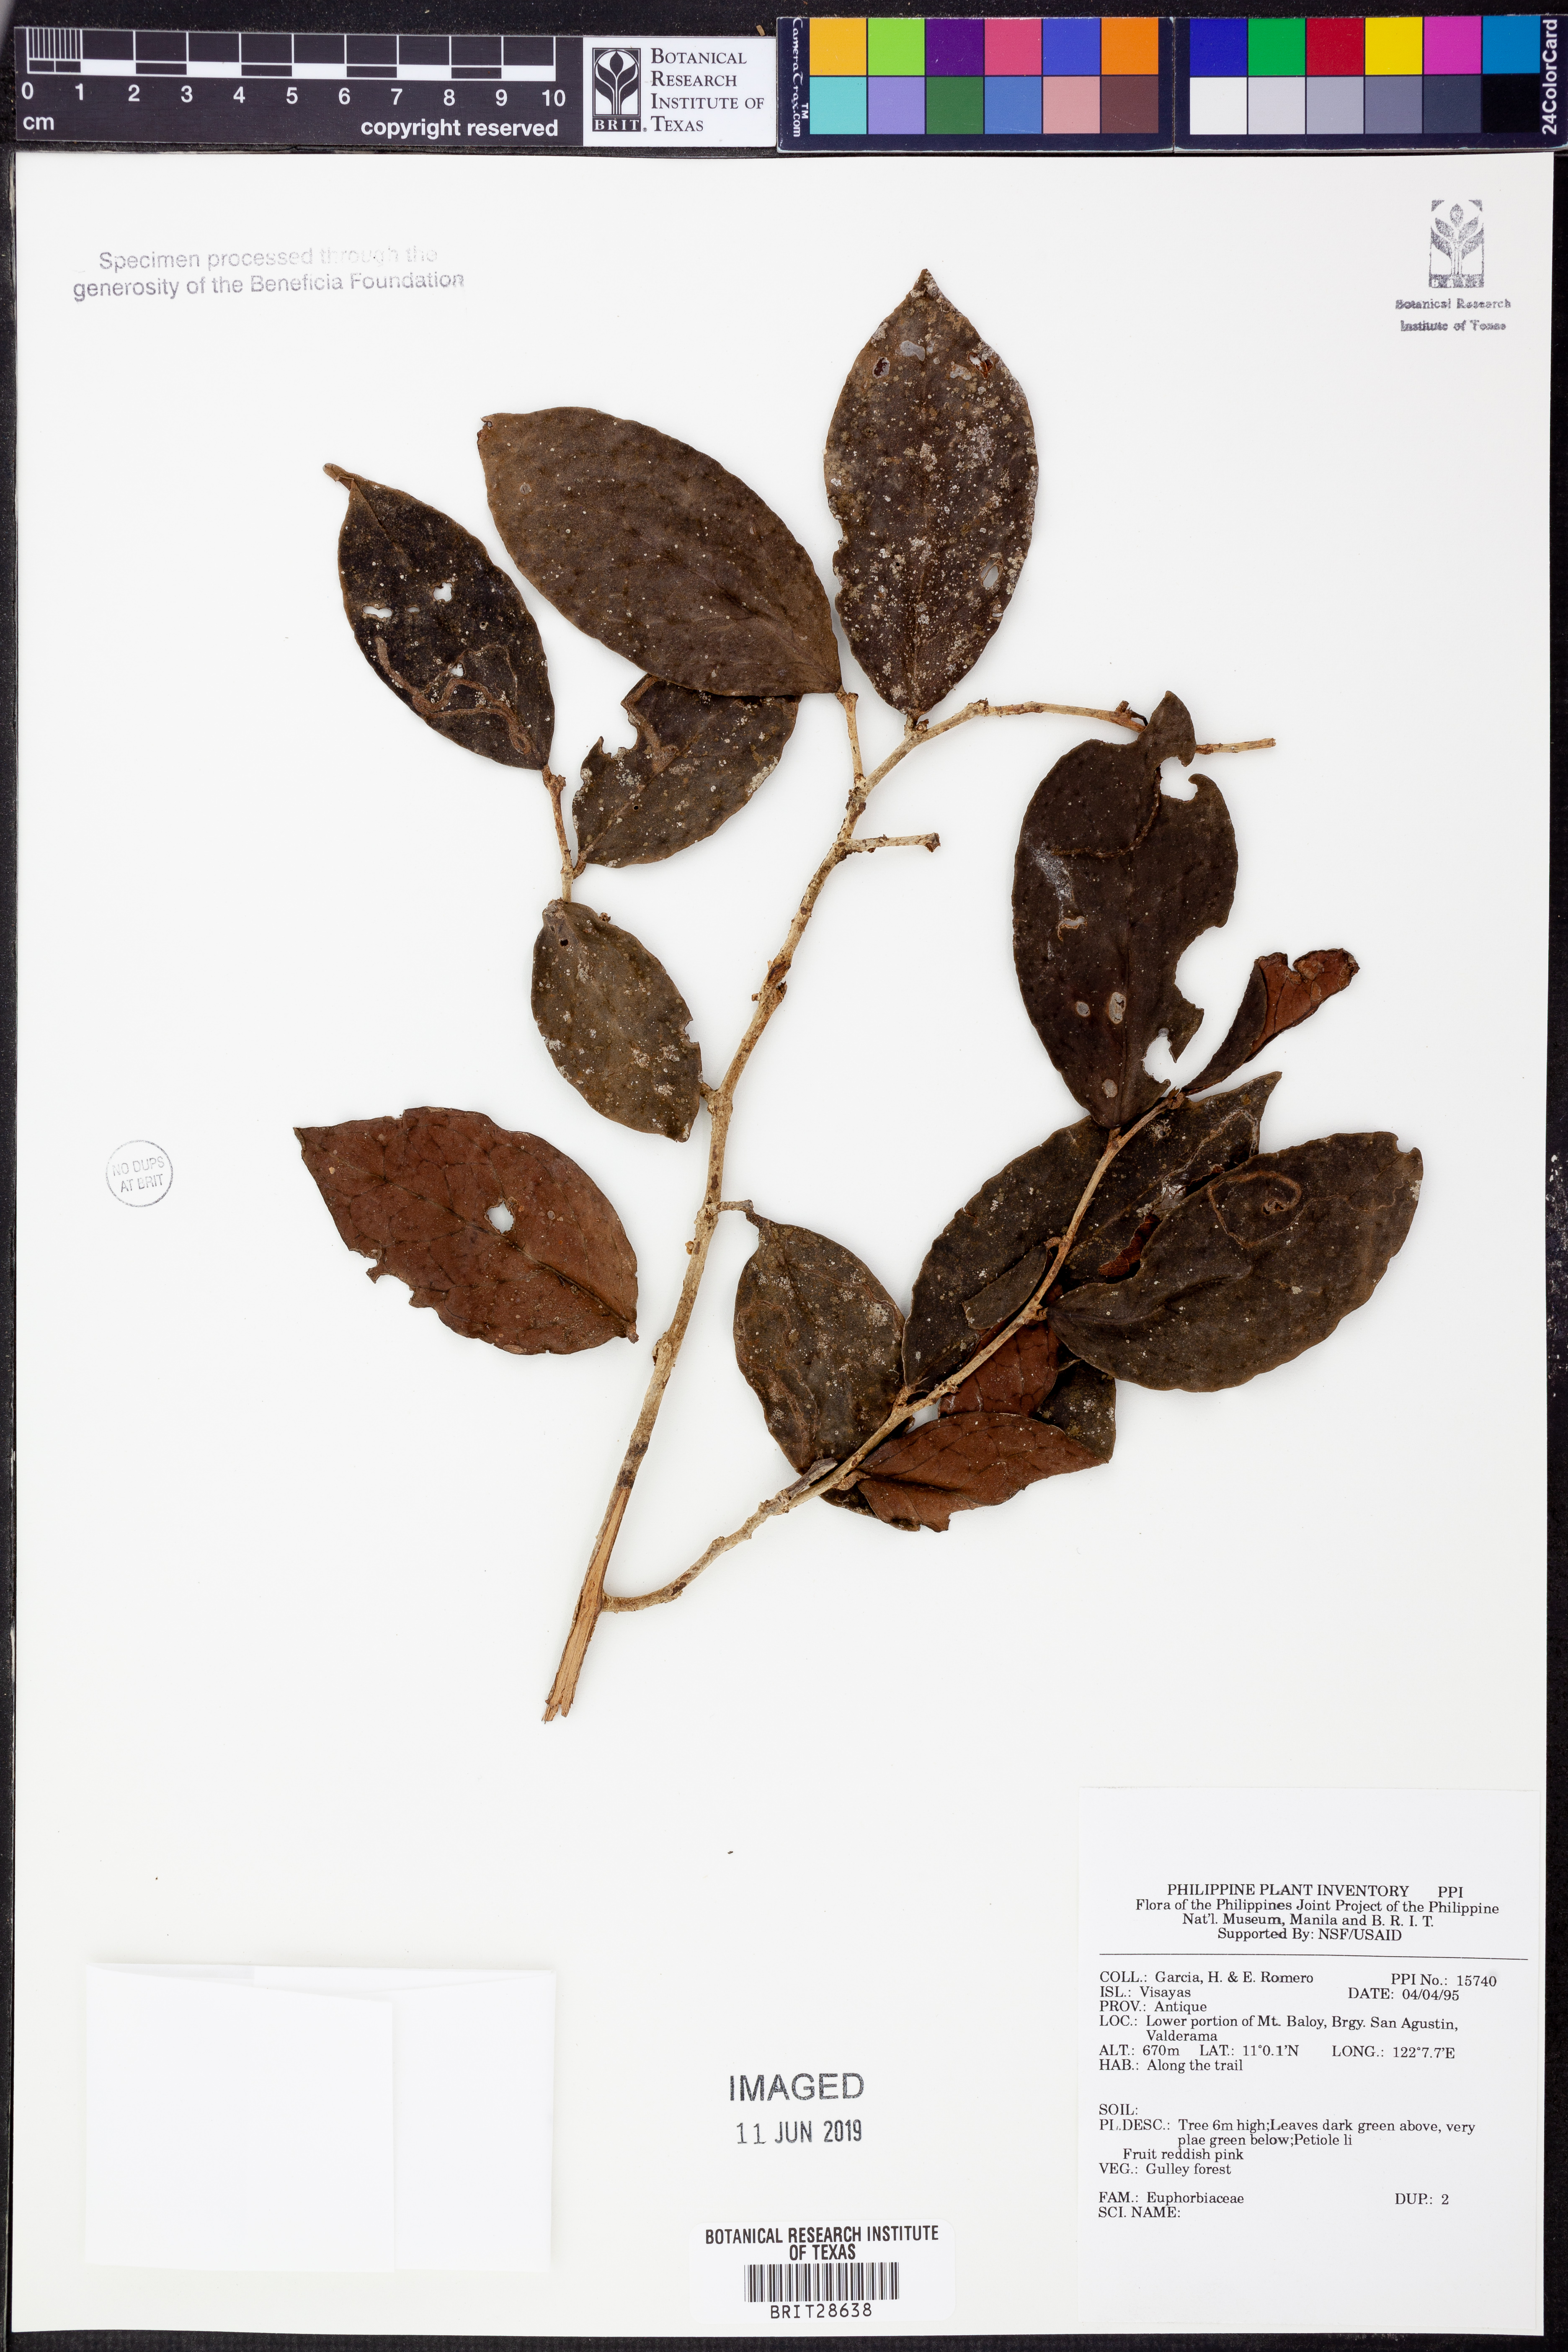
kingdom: Plantae
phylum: Tracheophyta
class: Magnoliopsida
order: Malpighiales
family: Euphorbiaceae
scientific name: Euphorbiaceae
